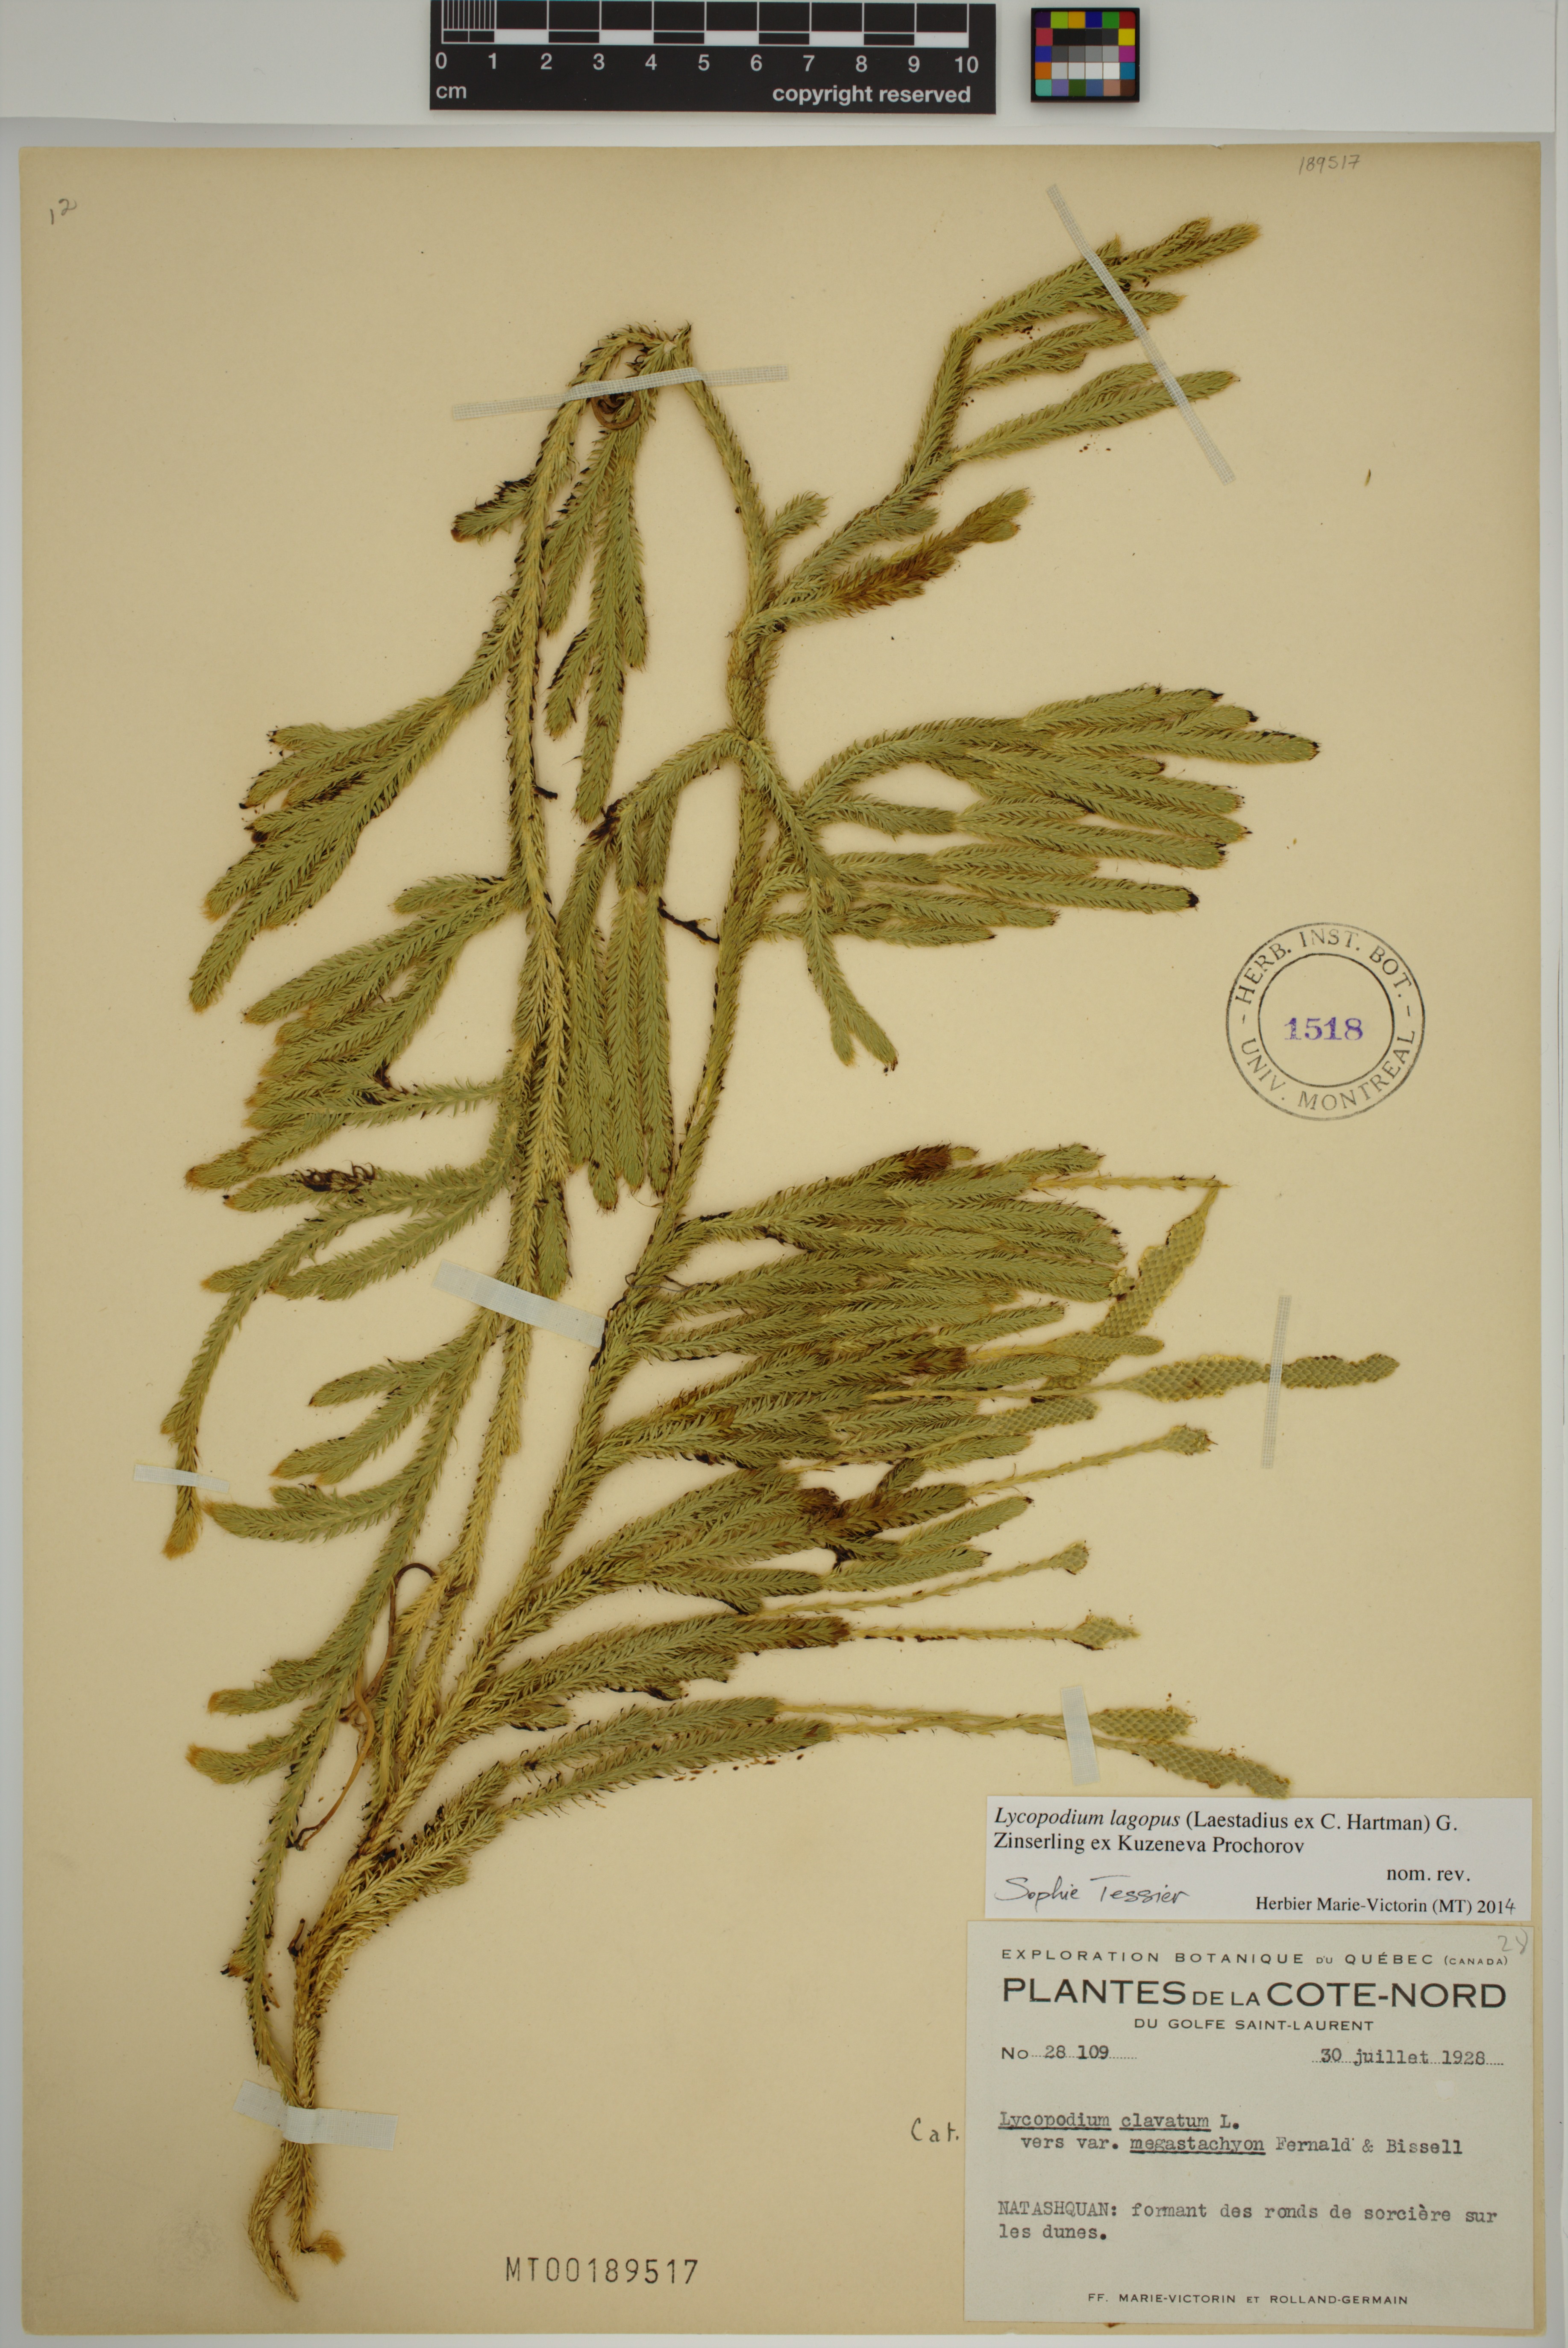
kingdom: Plantae
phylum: Tracheophyta
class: Lycopodiopsida
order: Lycopodiales
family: Lycopodiaceae
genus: Lycopodium
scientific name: Lycopodium lagopus
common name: One-cone clubmoss
